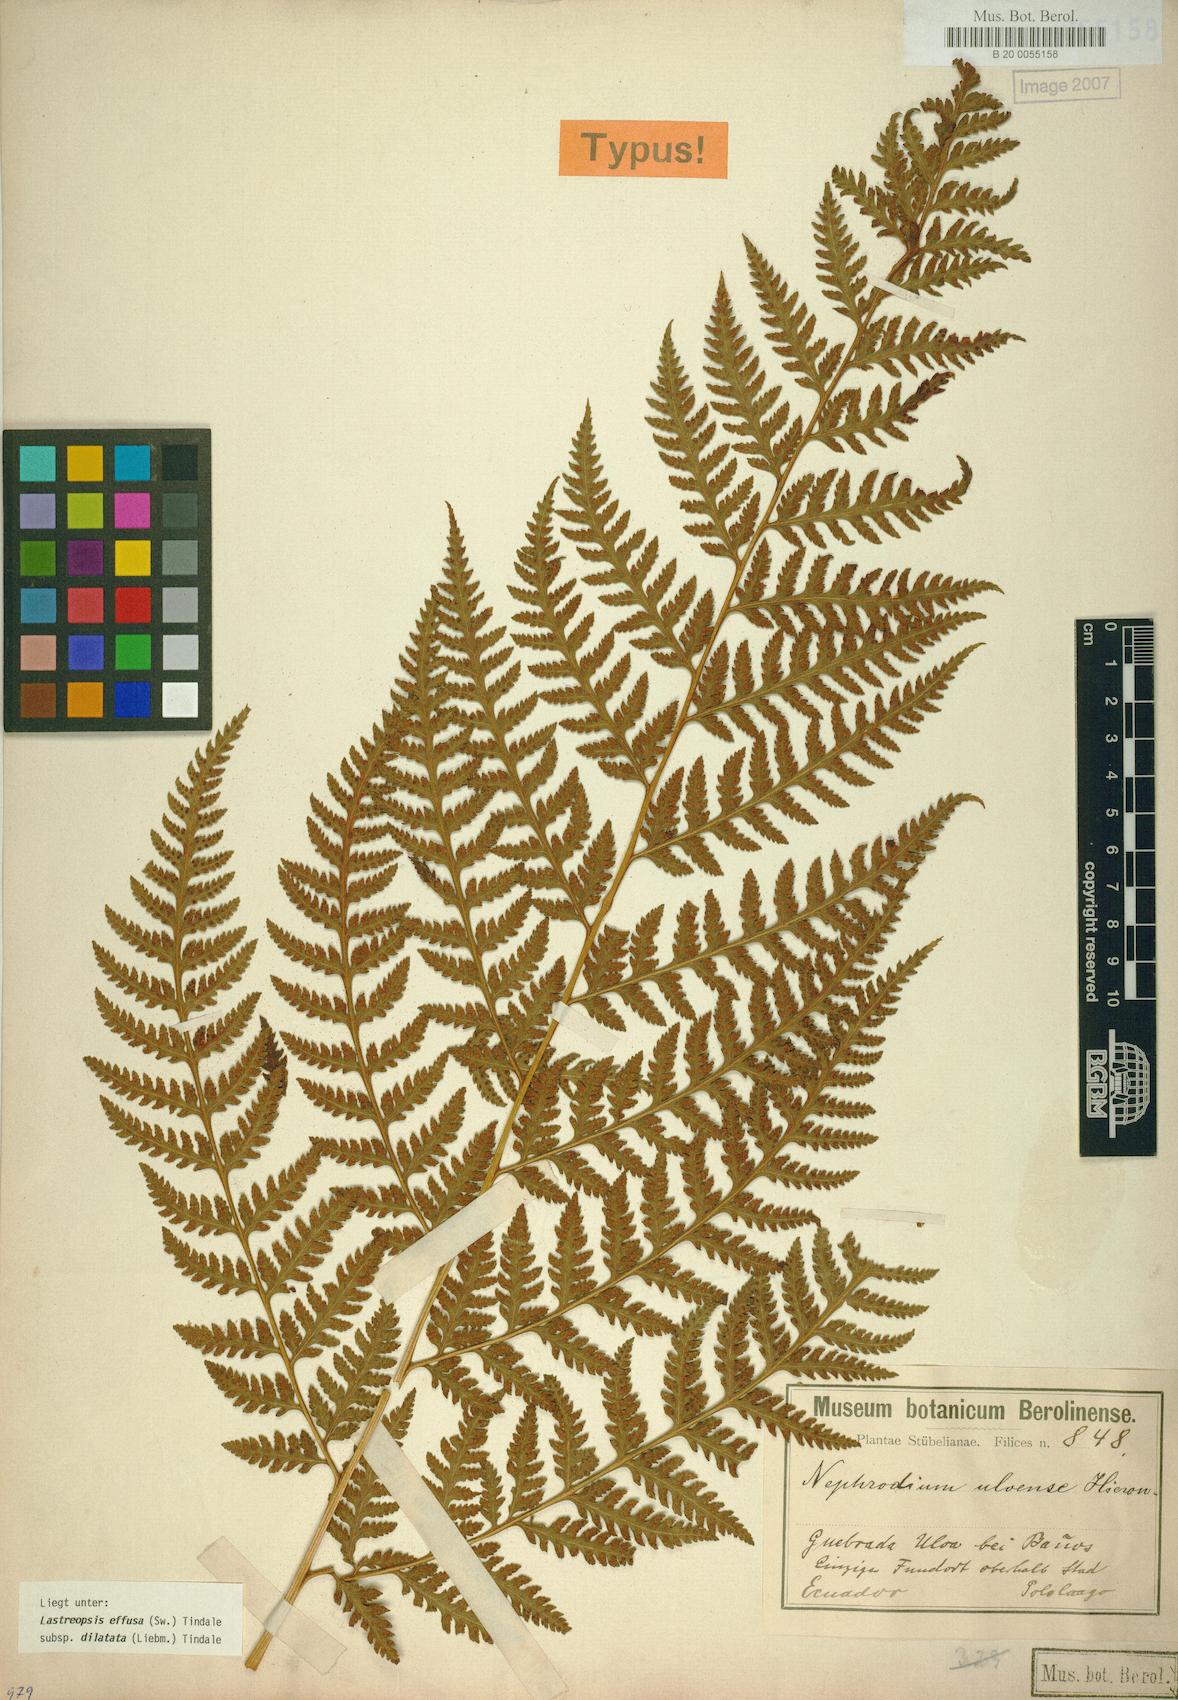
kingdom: Plantae
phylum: Tracheophyta
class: Polypodiopsida
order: Polypodiales
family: Dryopteridaceae
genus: Parapolystichum
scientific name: Parapolystichum effusum
